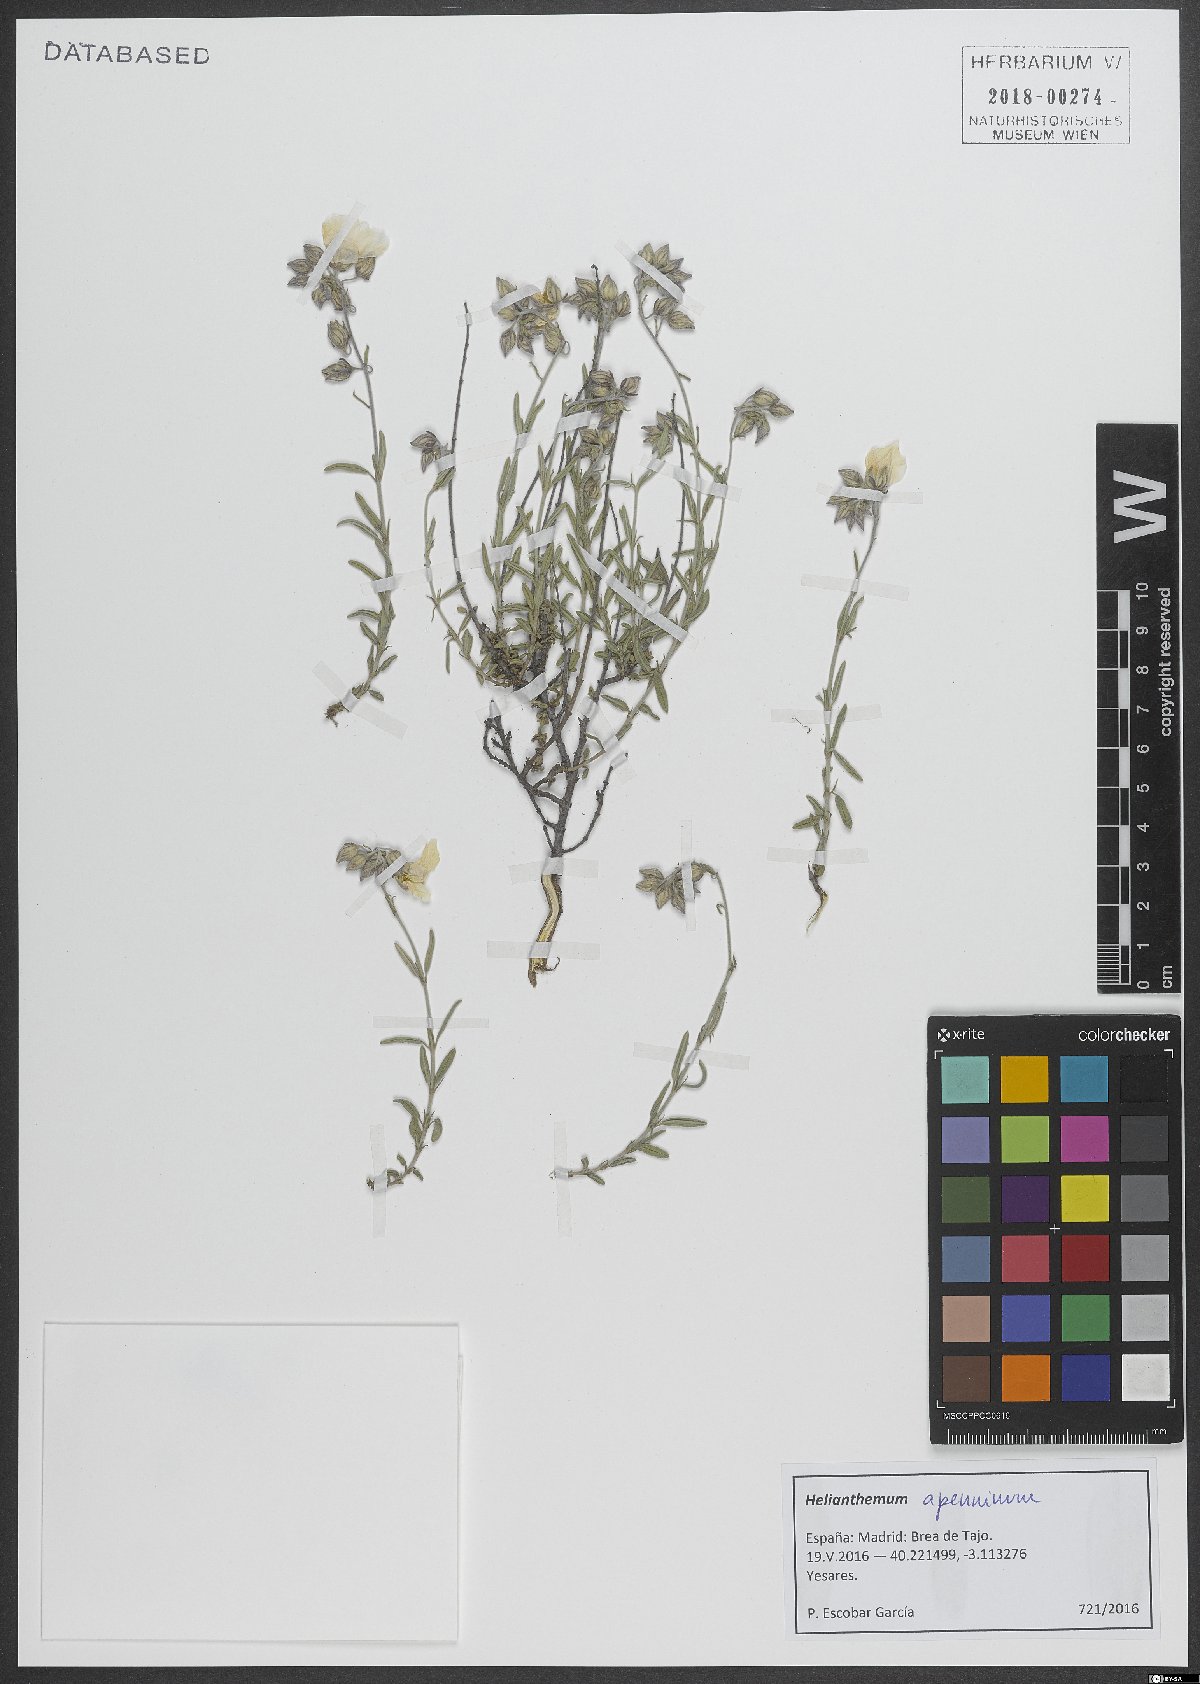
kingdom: Plantae
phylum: Tracheophyta
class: Magnoliopsida
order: Malvales
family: Cistaceae
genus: Helianthemum
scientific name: Helianthemum apenninum
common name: White rock-rose
